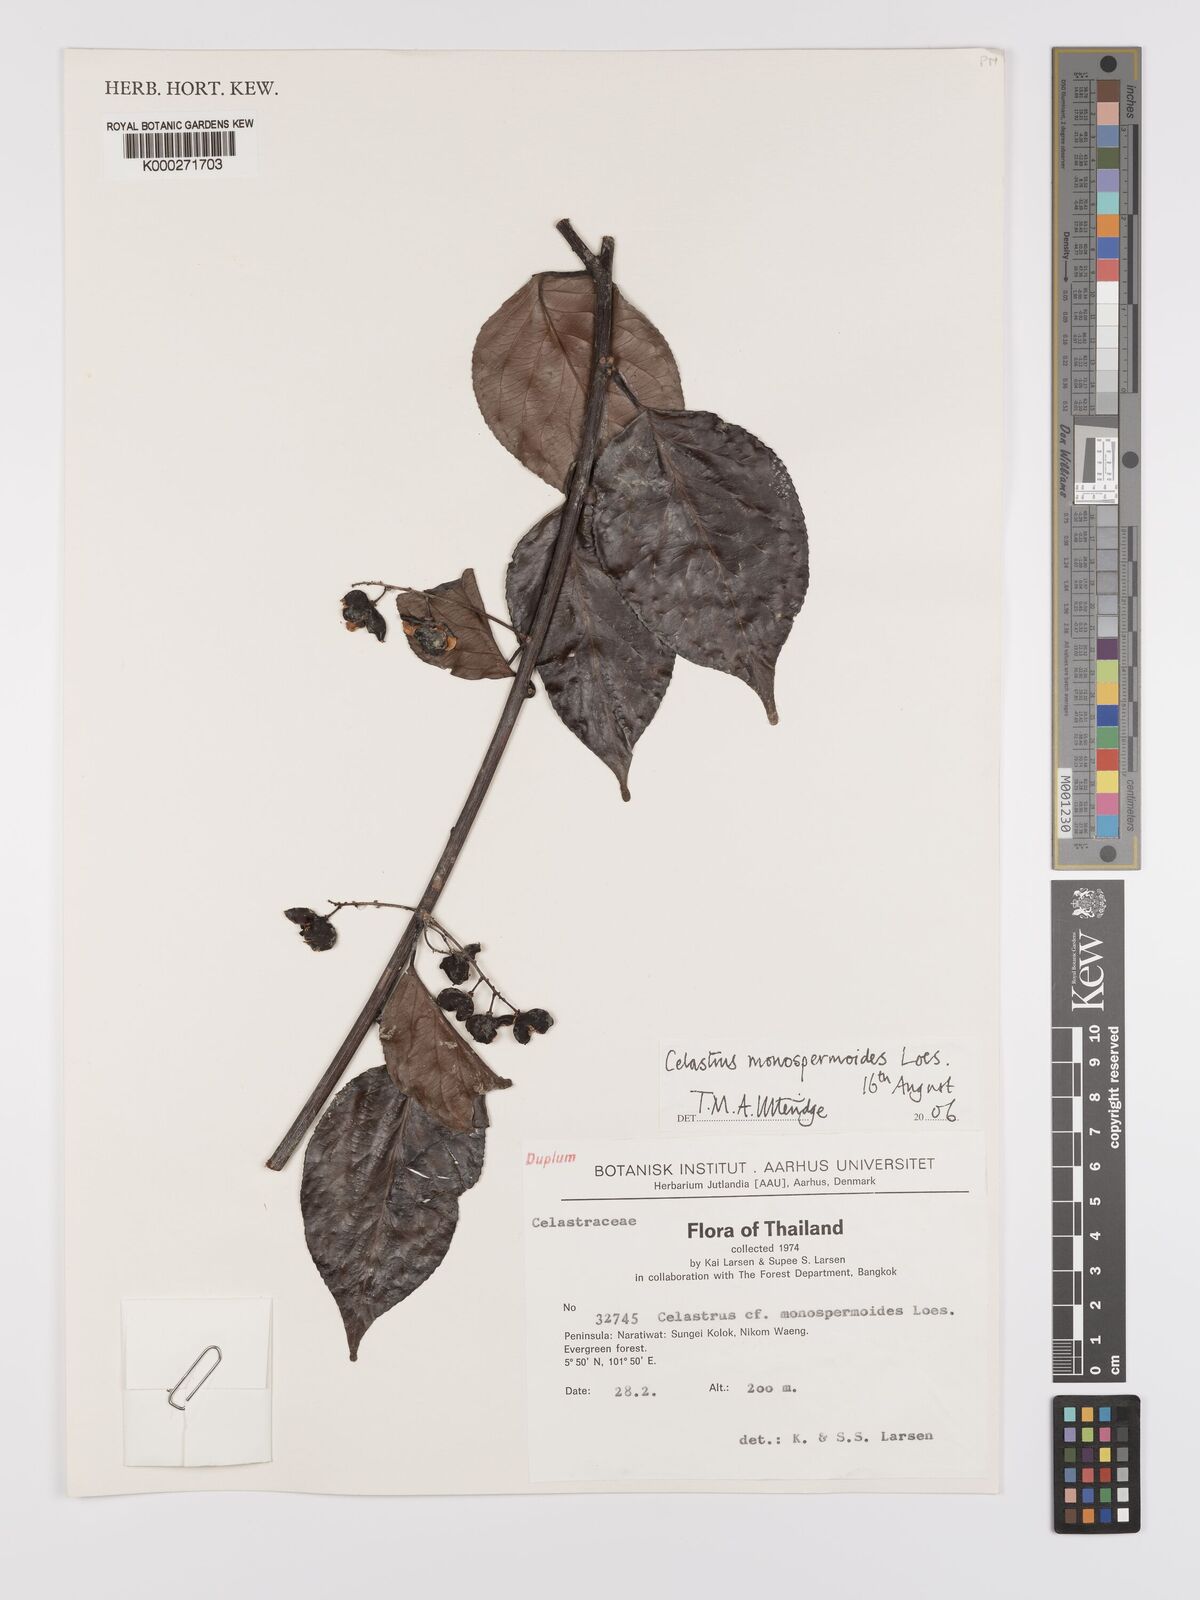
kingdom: Plantae
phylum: Tracheophyta
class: Magnoliopsida
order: Celastrales
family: Celastraceae
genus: Celastrus
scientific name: Celastrus monospermoides
